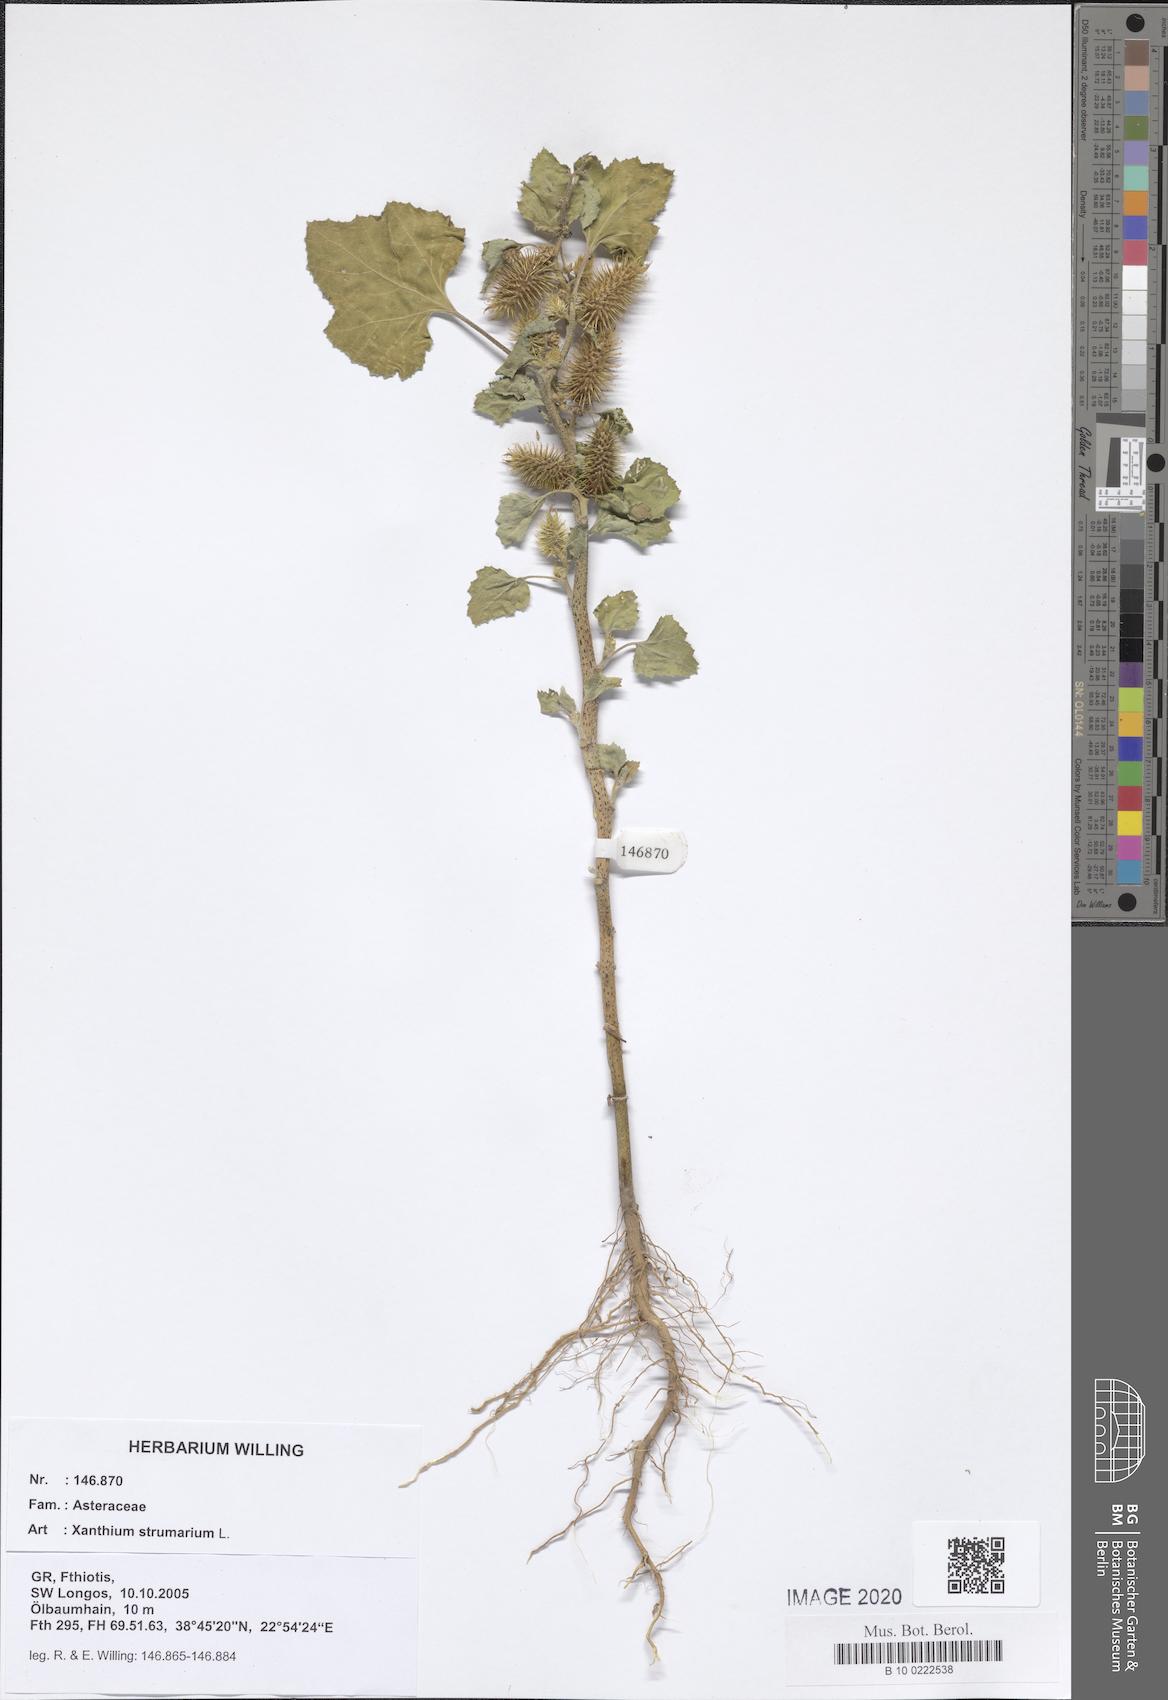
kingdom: Plantae
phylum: Tracheophyta
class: Magnoliopsida
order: Asterales
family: Asteraceae
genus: Xanthium
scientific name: Xanthium strumarium
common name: Rough cocklebur
